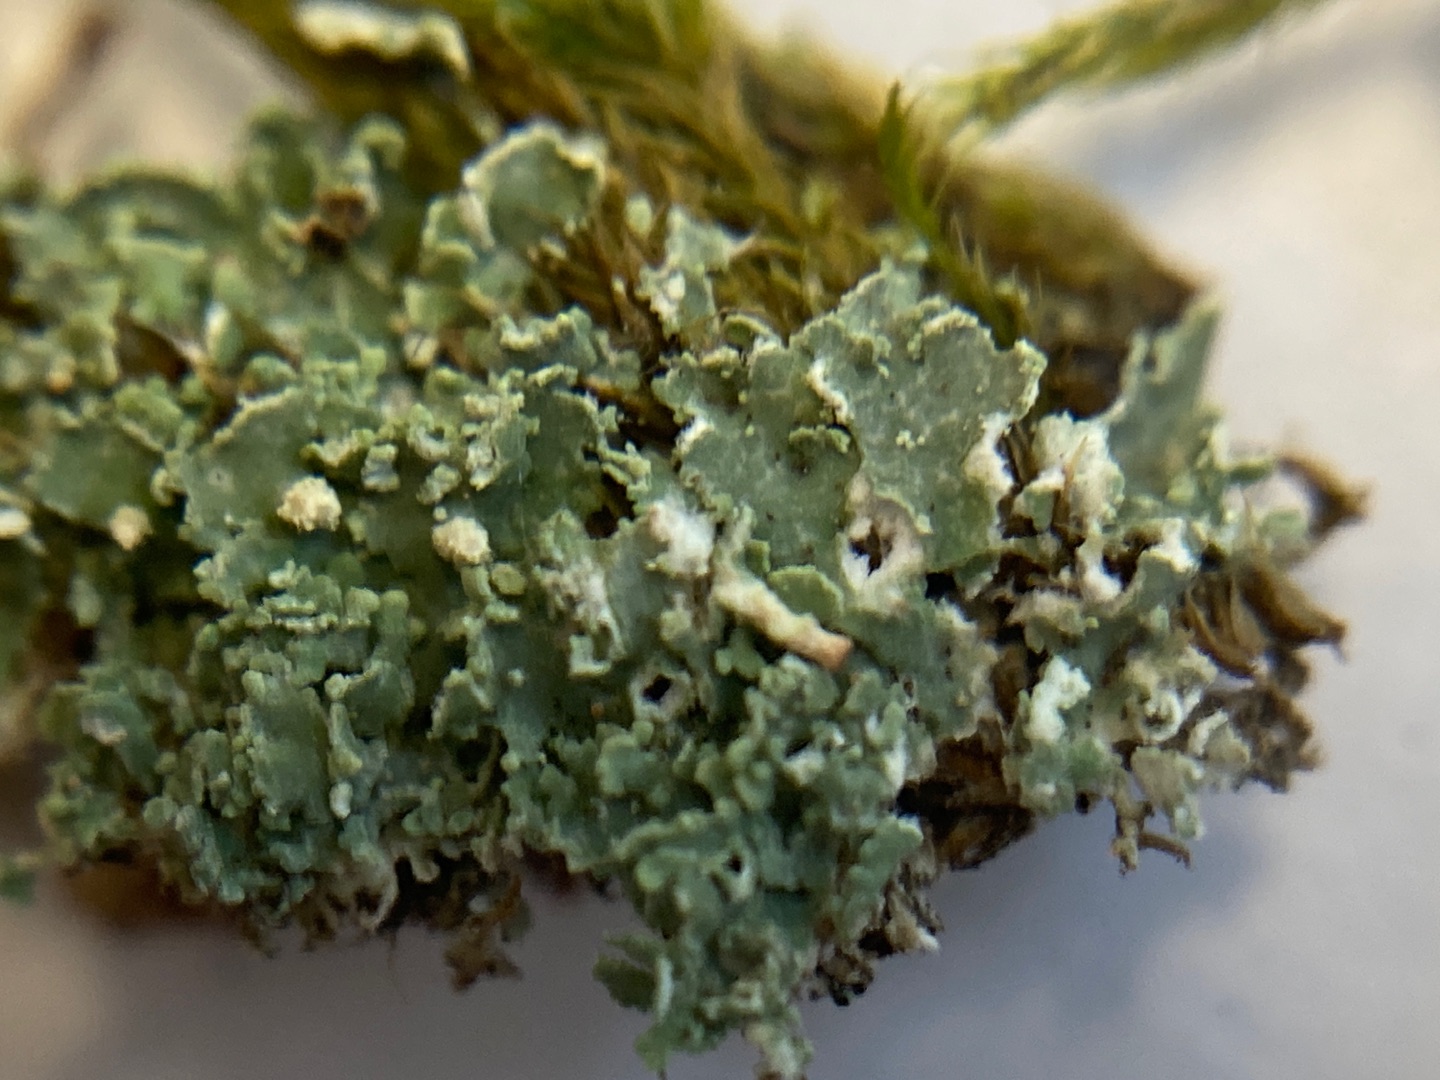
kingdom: Fungi
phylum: Ascomycota
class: Lecanoromycetes
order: Lecanorales
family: Cladoniaceae
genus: Cladonia
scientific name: Cladonia
